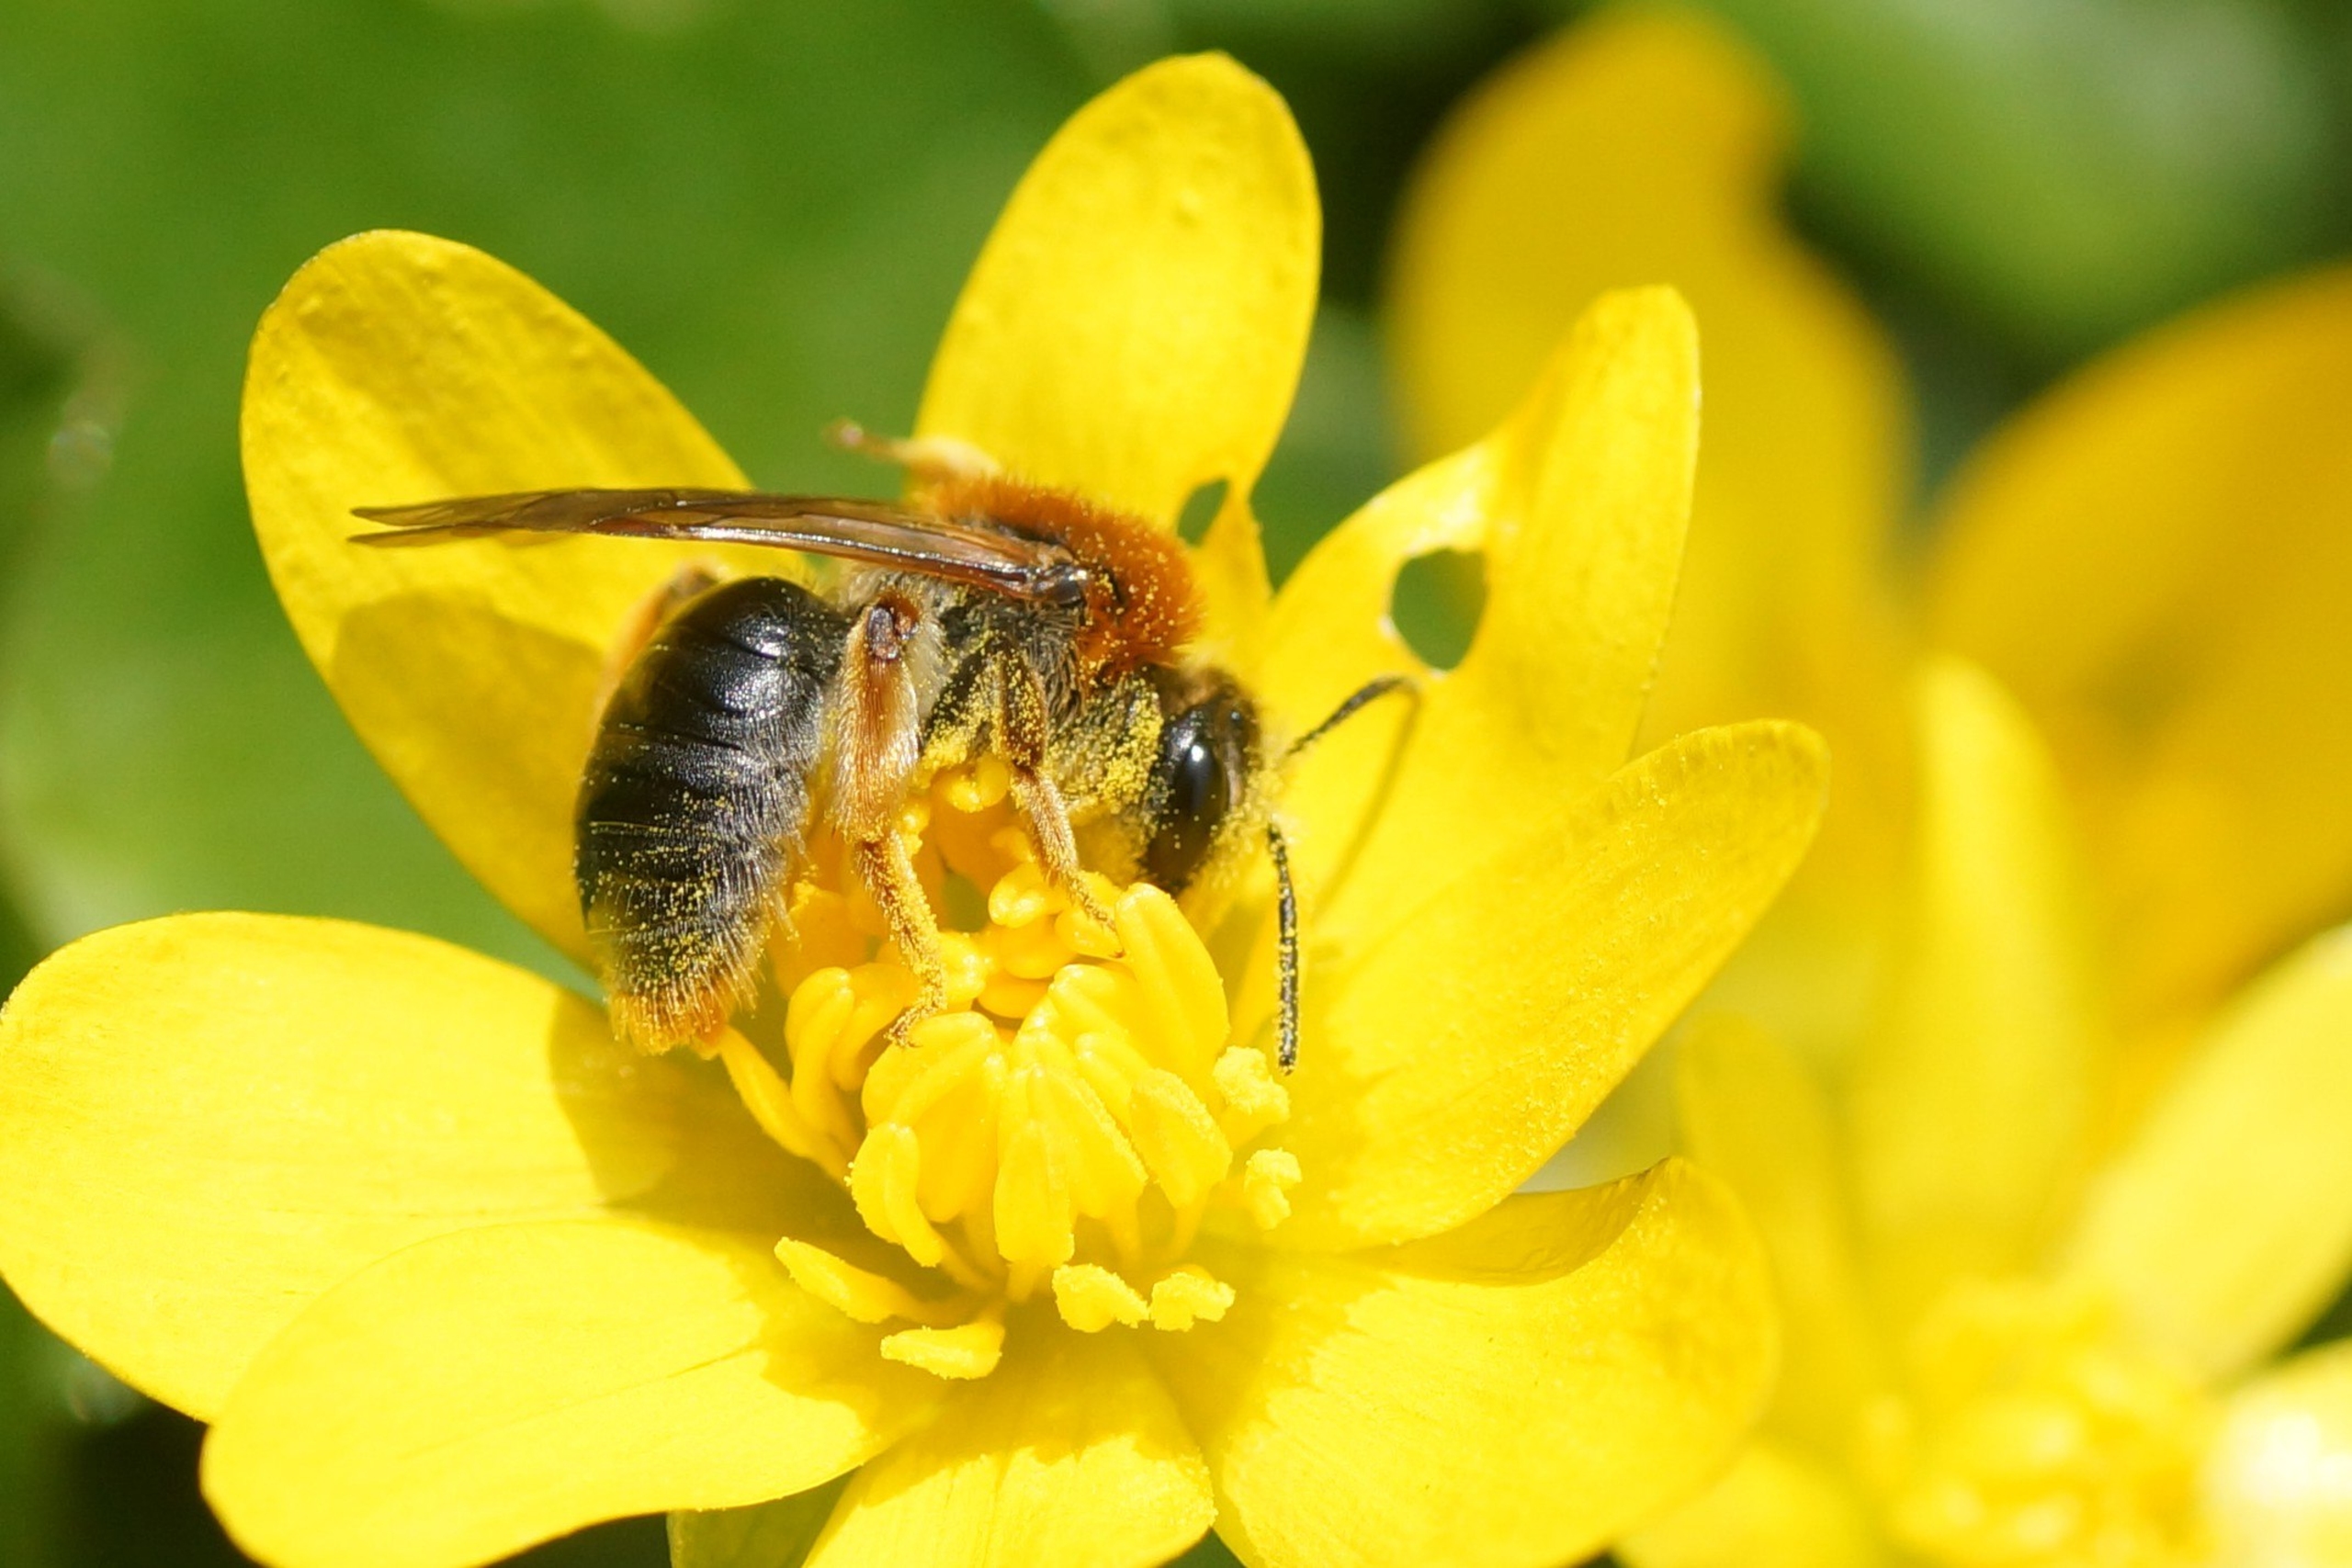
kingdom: Animalia
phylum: Arthropoda
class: Insecta
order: Hymenoptera
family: Andrenidae
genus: Andrena
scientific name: Andrena haemorrhoa
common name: Havejordbi
